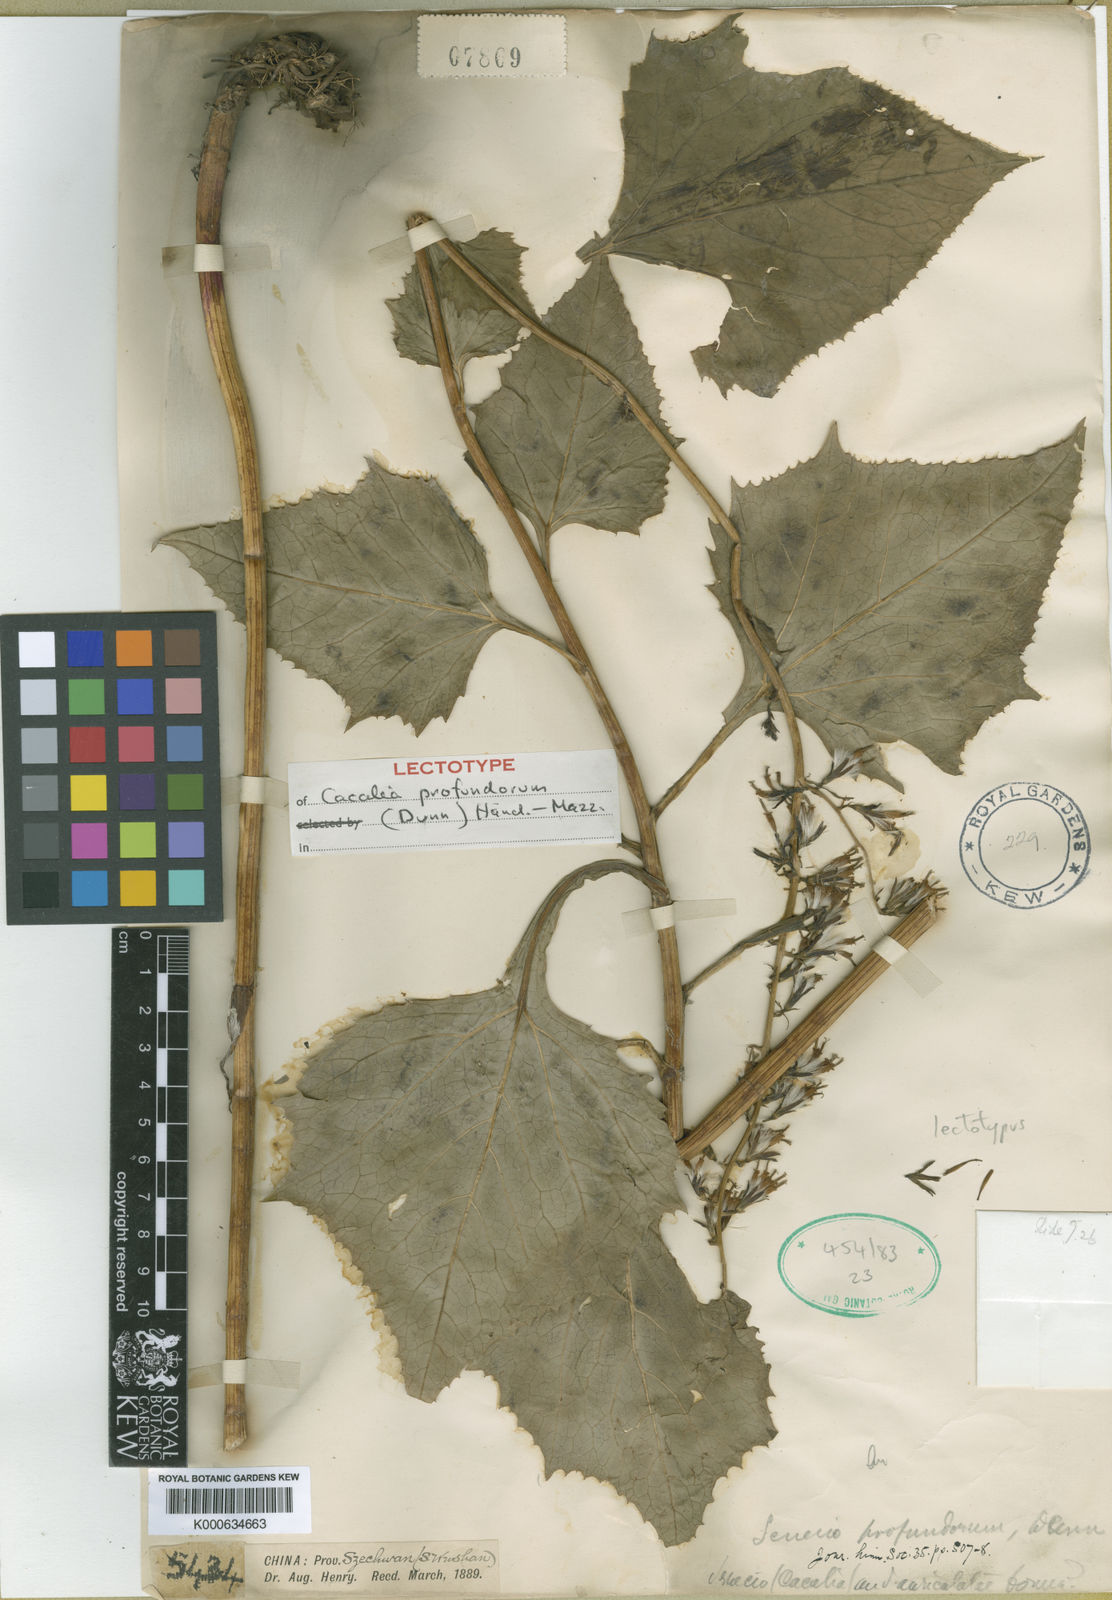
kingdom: Plantae
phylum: Tracheophyta
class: Magnoliopsida
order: Asterales
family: Asteraceae
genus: Parasenecio
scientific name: Parasenecio profundorum
